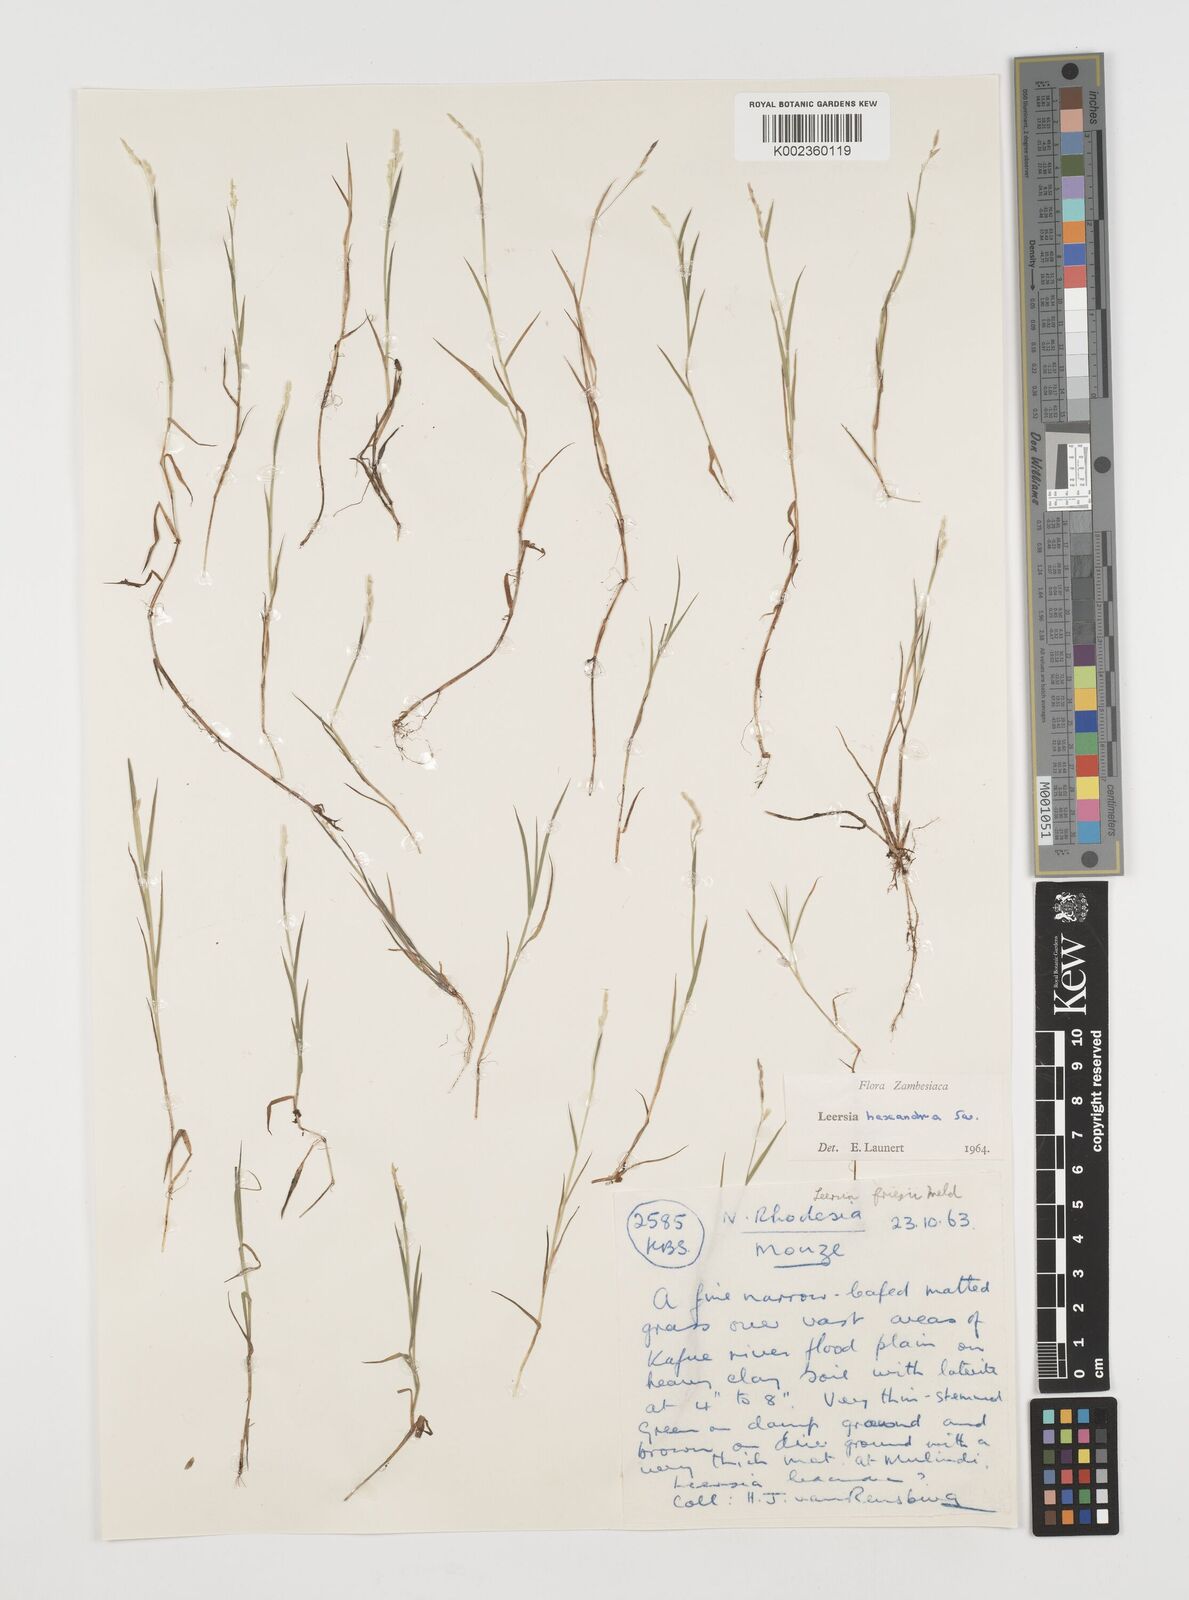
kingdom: Plantae
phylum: Tracheophyta
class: Liliopsida
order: Poales
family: Poaceae
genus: Leersia
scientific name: Leersia hexandra
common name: Southern cut grass
